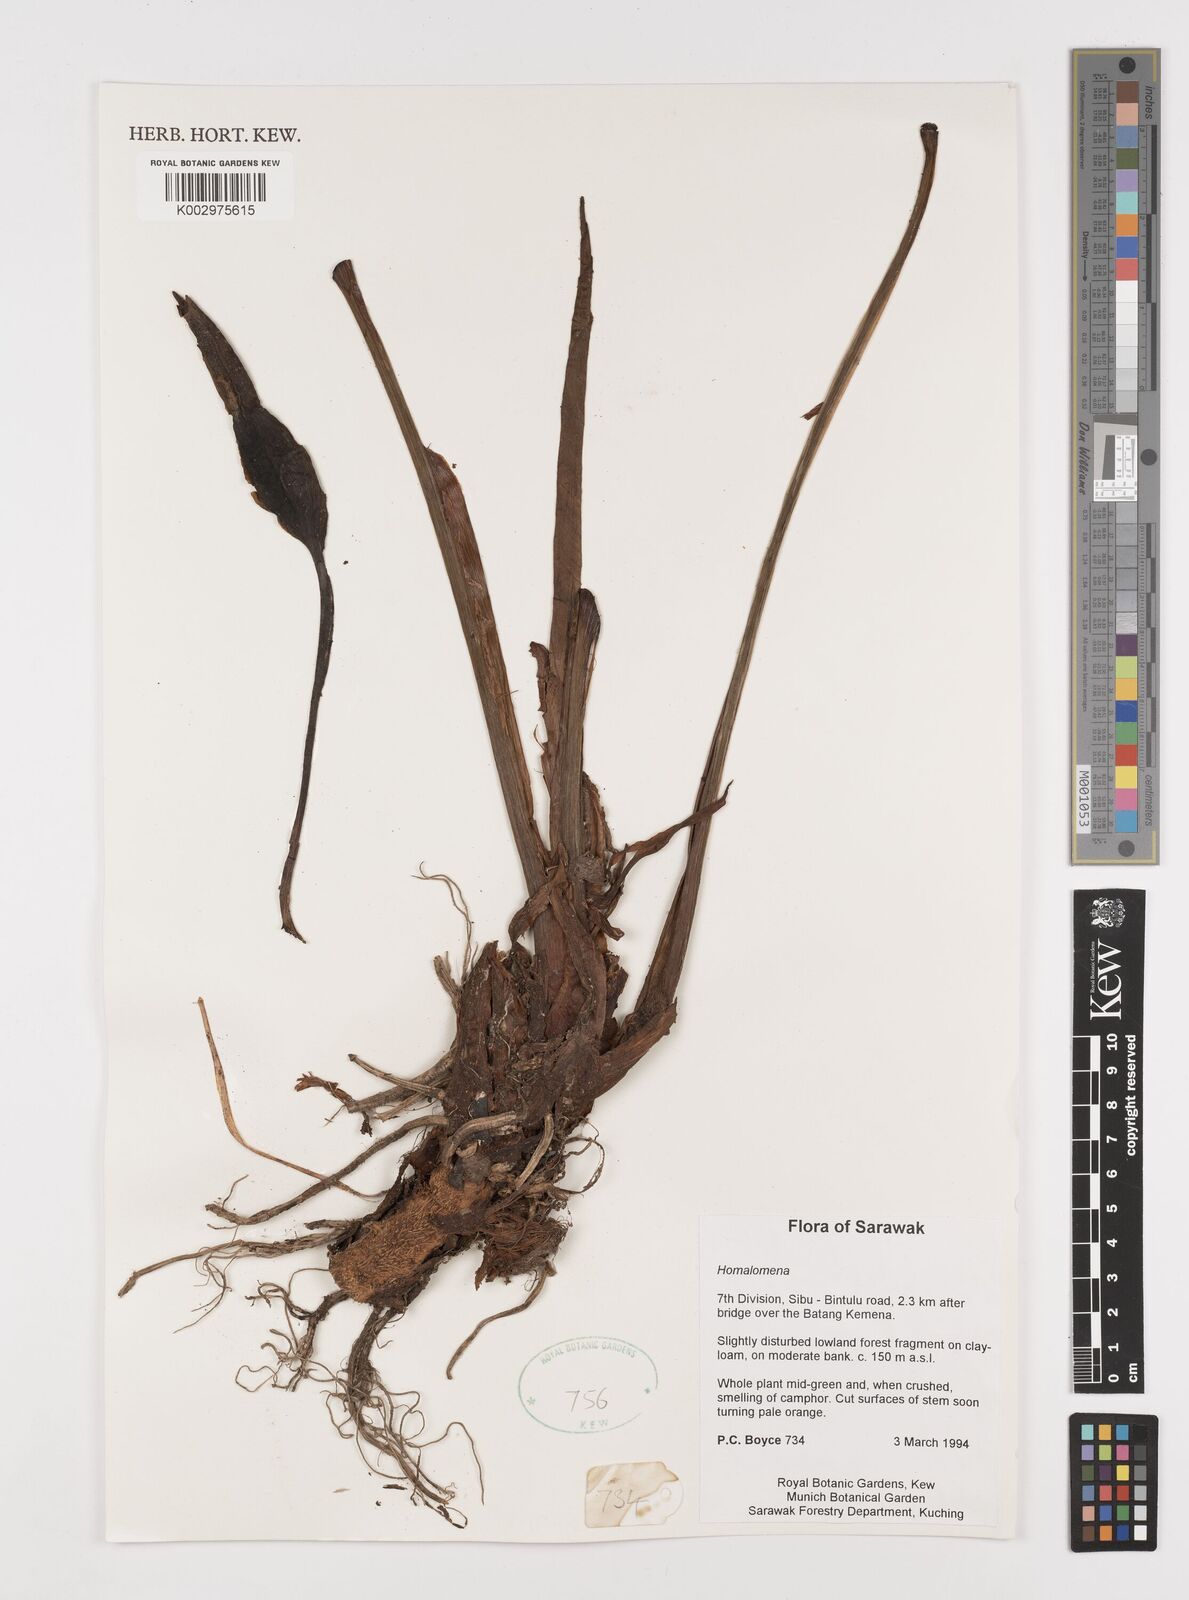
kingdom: Plantae
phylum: Tracheophyta
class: Liliopsida
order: Alismatales
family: Araceae
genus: Homalomena
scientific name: Homalomena
